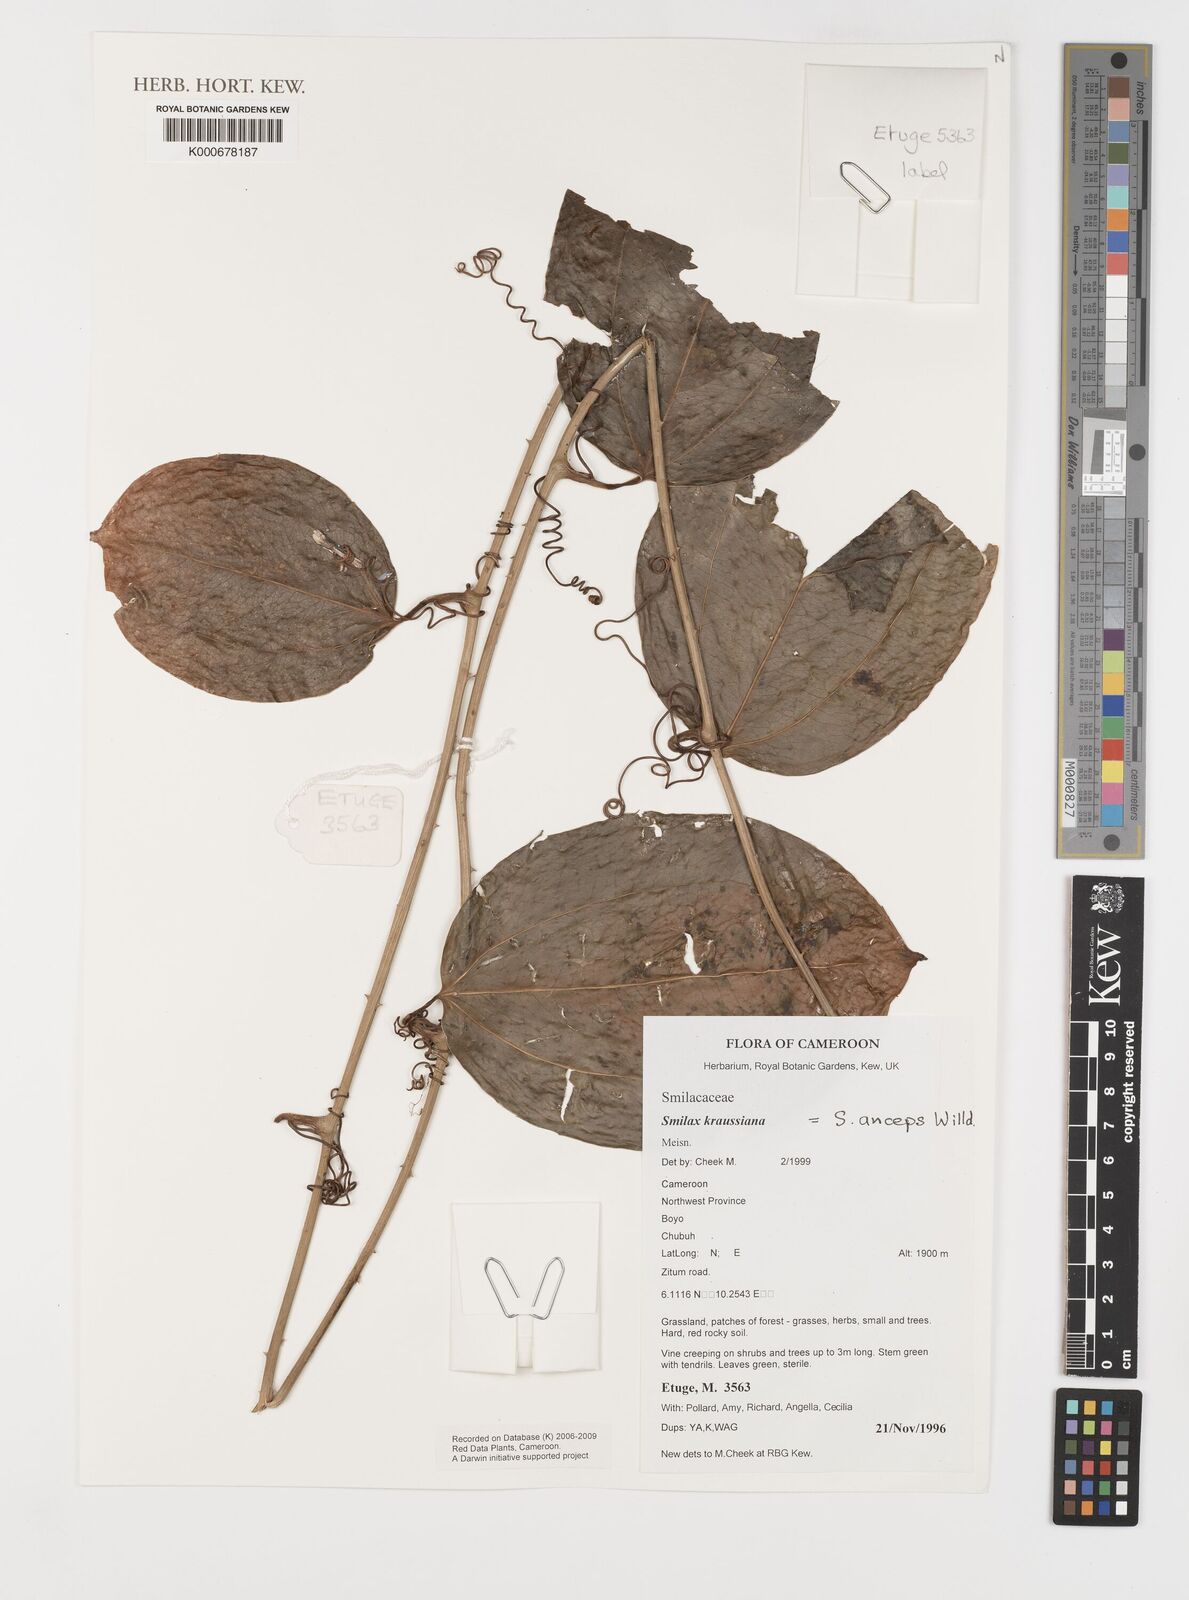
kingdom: Plantae
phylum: Tracheophyta
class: Liliopsida
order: Liliales
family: Smilacaceae
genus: Smilax
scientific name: Smilax anceps
